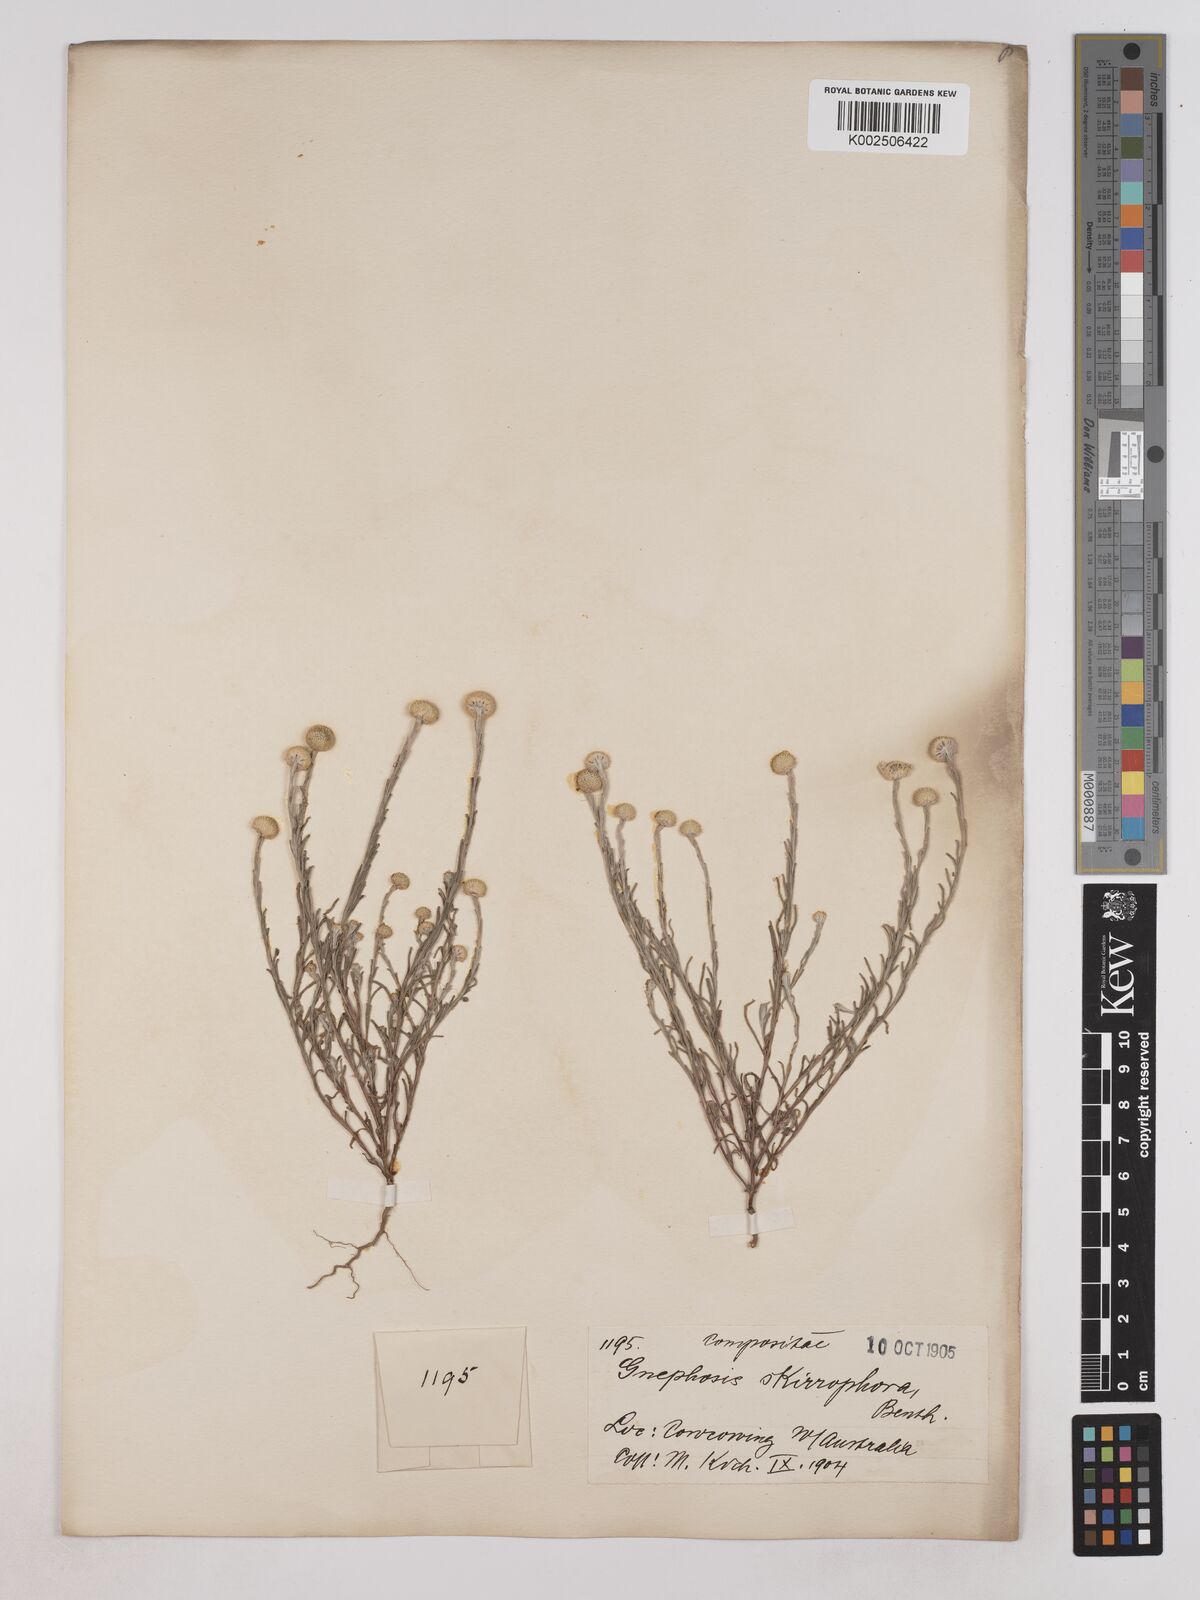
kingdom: Plantae
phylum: Tracheophyta
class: Magnoliopsida
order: Asterales
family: Asteraceae
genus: Trichanthodium
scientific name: Trichanthodium skirrophorum
